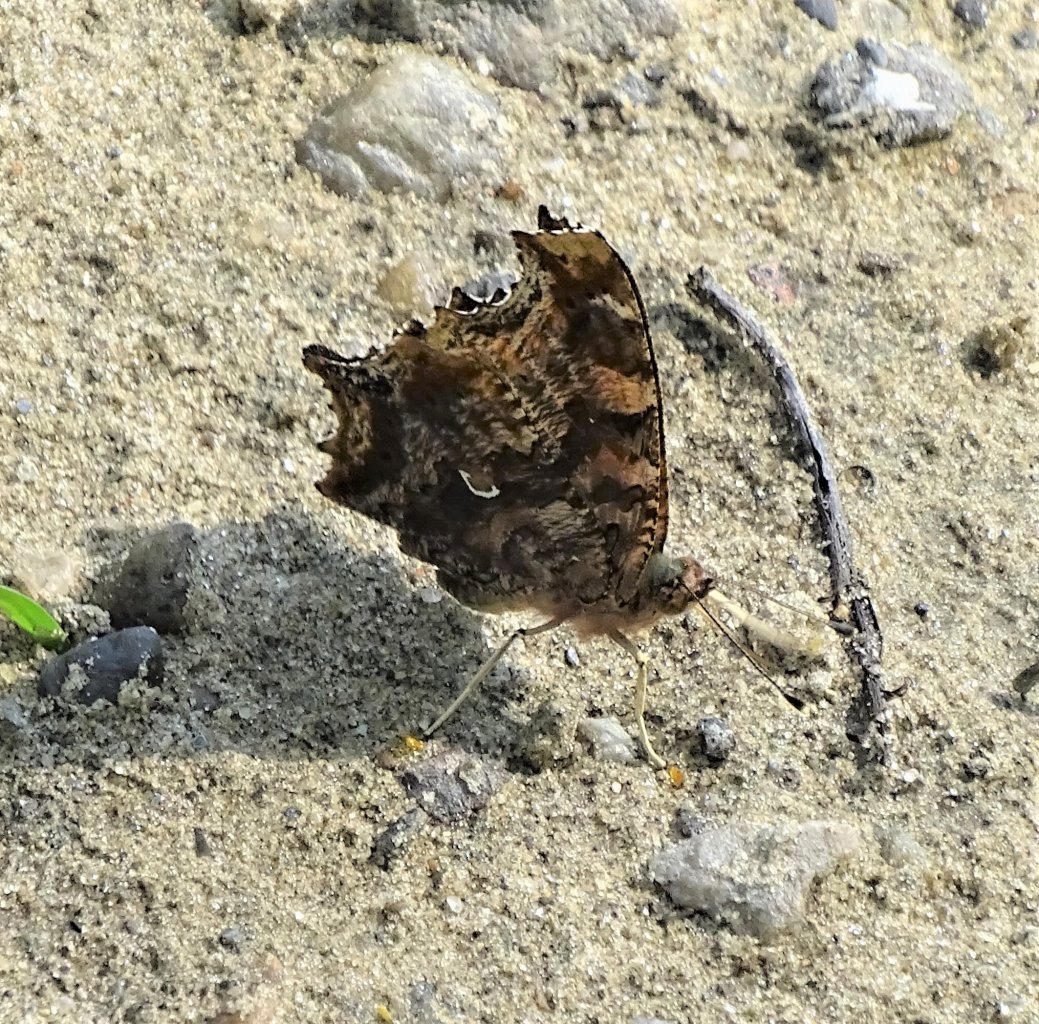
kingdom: Animalia
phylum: Arthropoda
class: Insecta
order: Lepidoptera
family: Nymphalidae
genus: Polygonia
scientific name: Polygonia comma
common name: Eastern Comma
